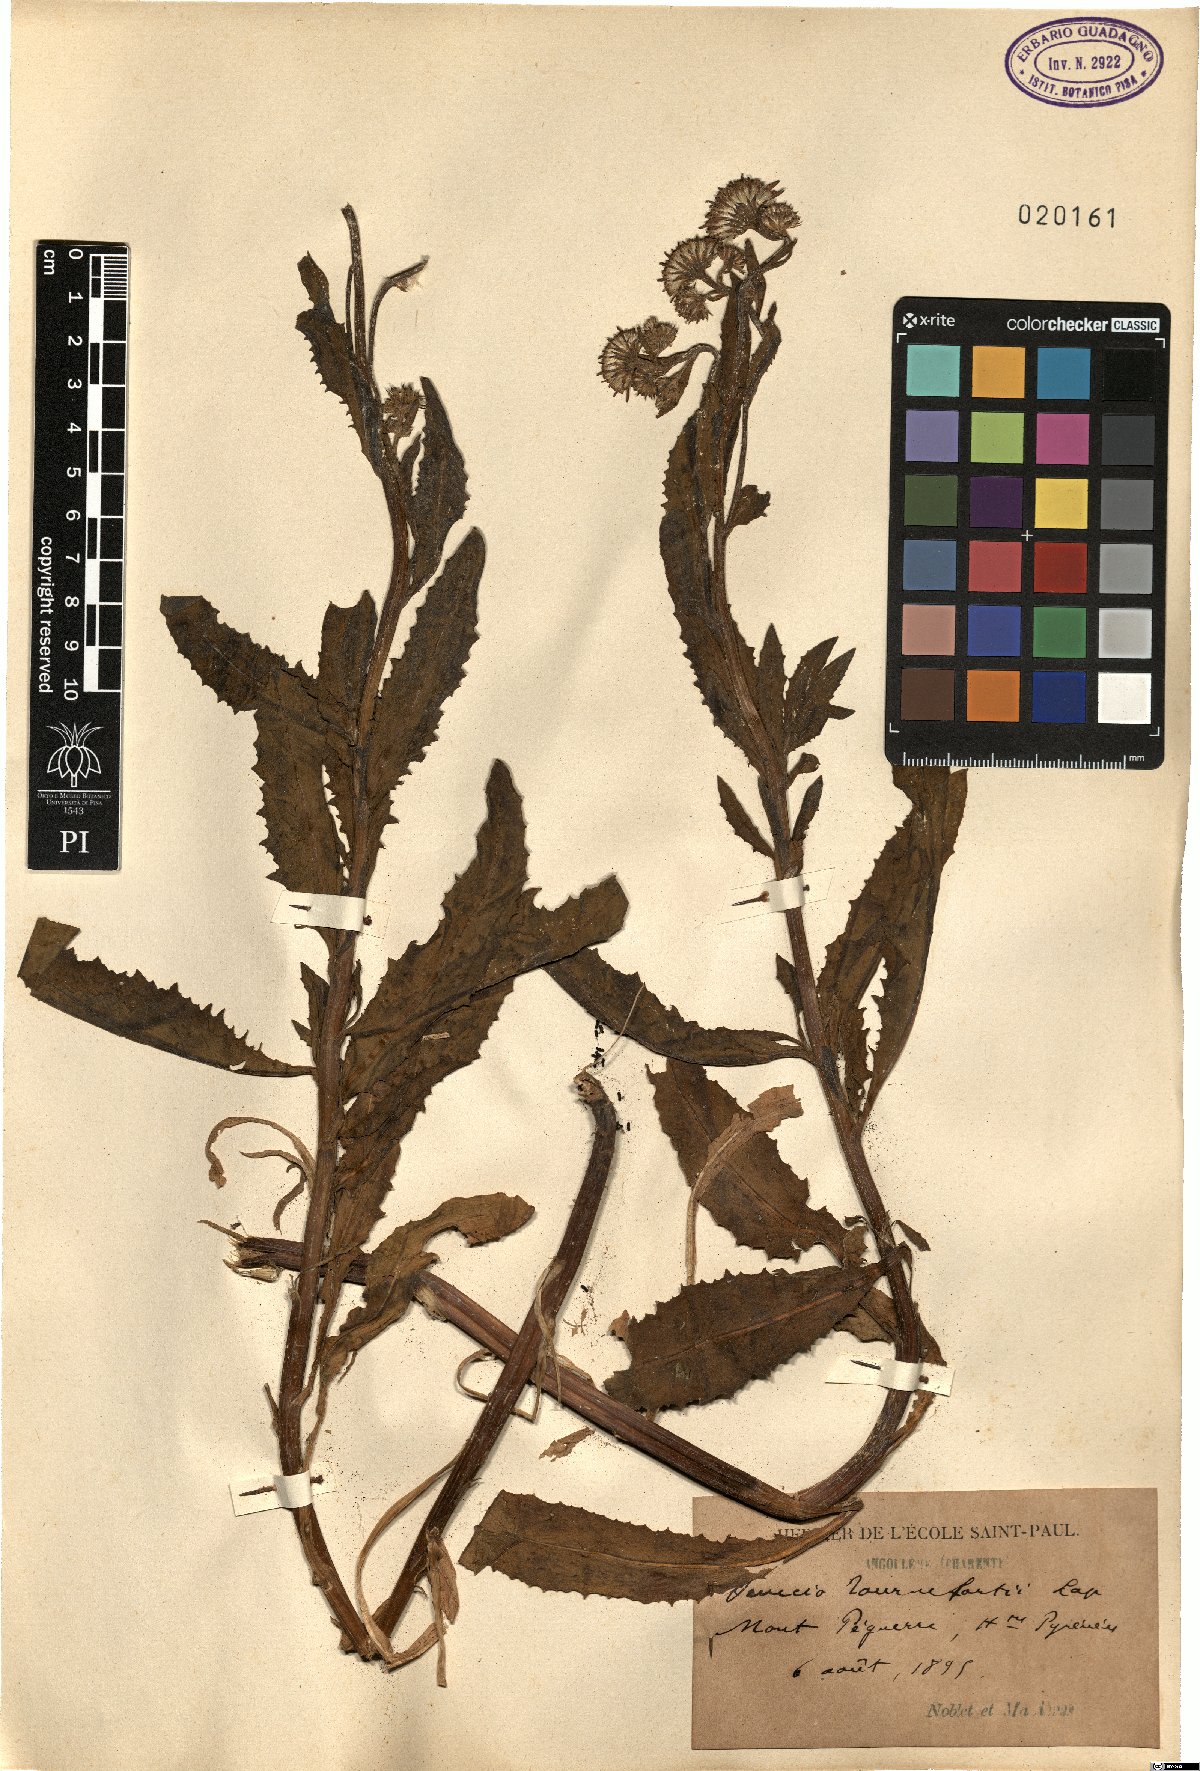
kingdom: Plantae
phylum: Tracheophyta
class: Magnoliopsida
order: Asterales
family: Asteraceae
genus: Senecio
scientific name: Senecio pyrenaicus
